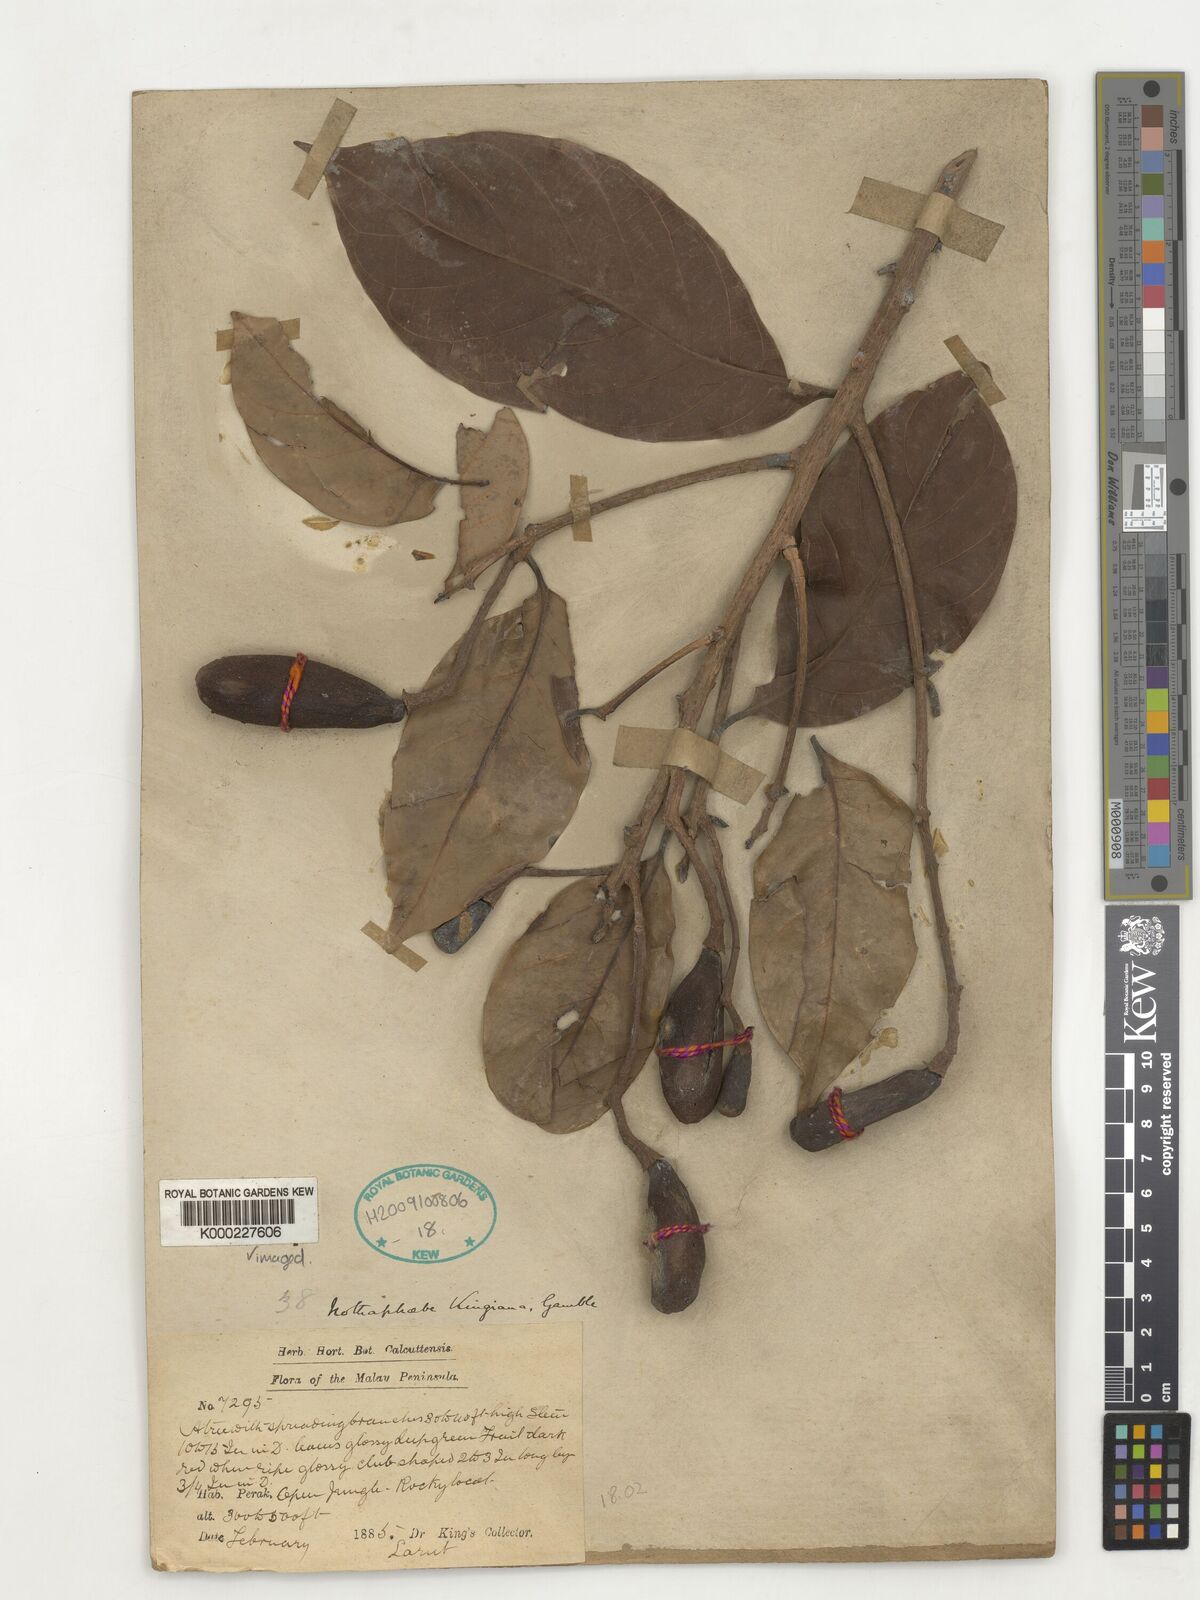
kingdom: Plantae
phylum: Tracheophyta
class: Magnoliopsida
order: Laurales
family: Lauraceae
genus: Nothaphoebe
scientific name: Nothaphoebe
